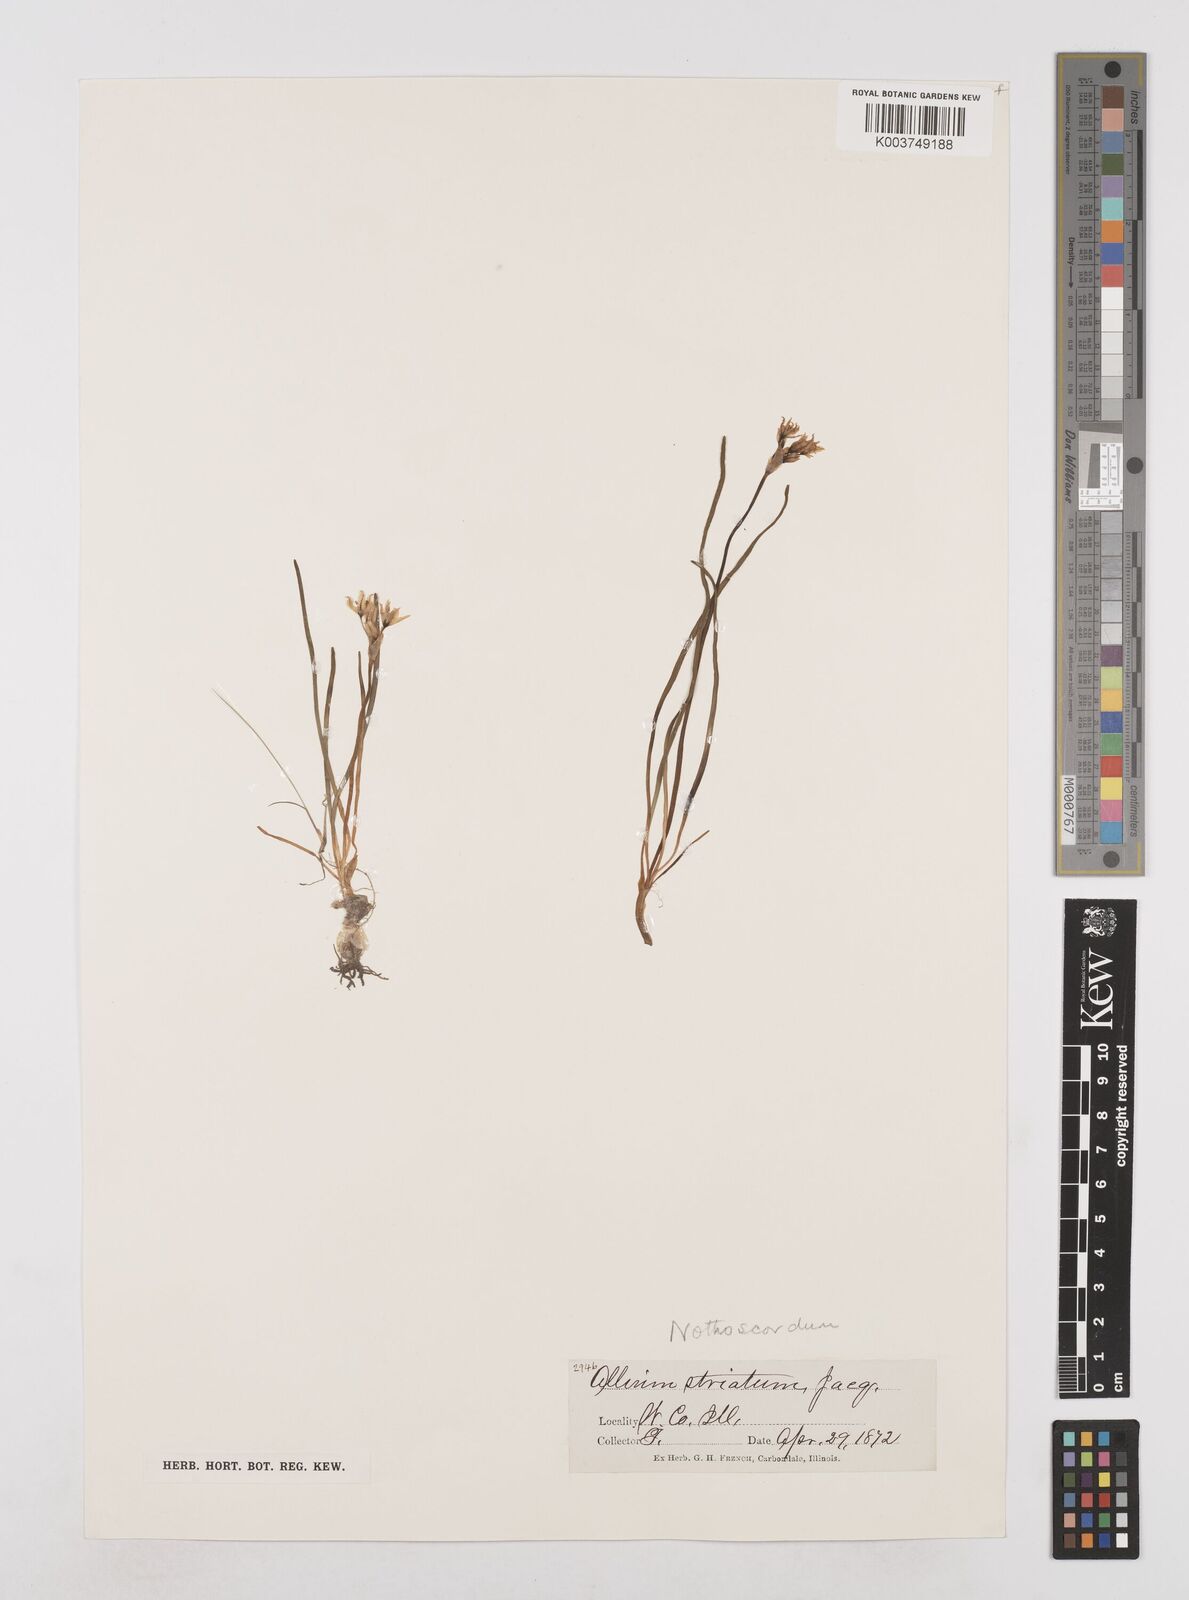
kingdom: Plantae
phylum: Tracheophyta
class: Liliopsida
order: Asparagales
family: Amaryllidaceae
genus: Nothoscordum
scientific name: Nothoscordum bivalve
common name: Crow-poison
